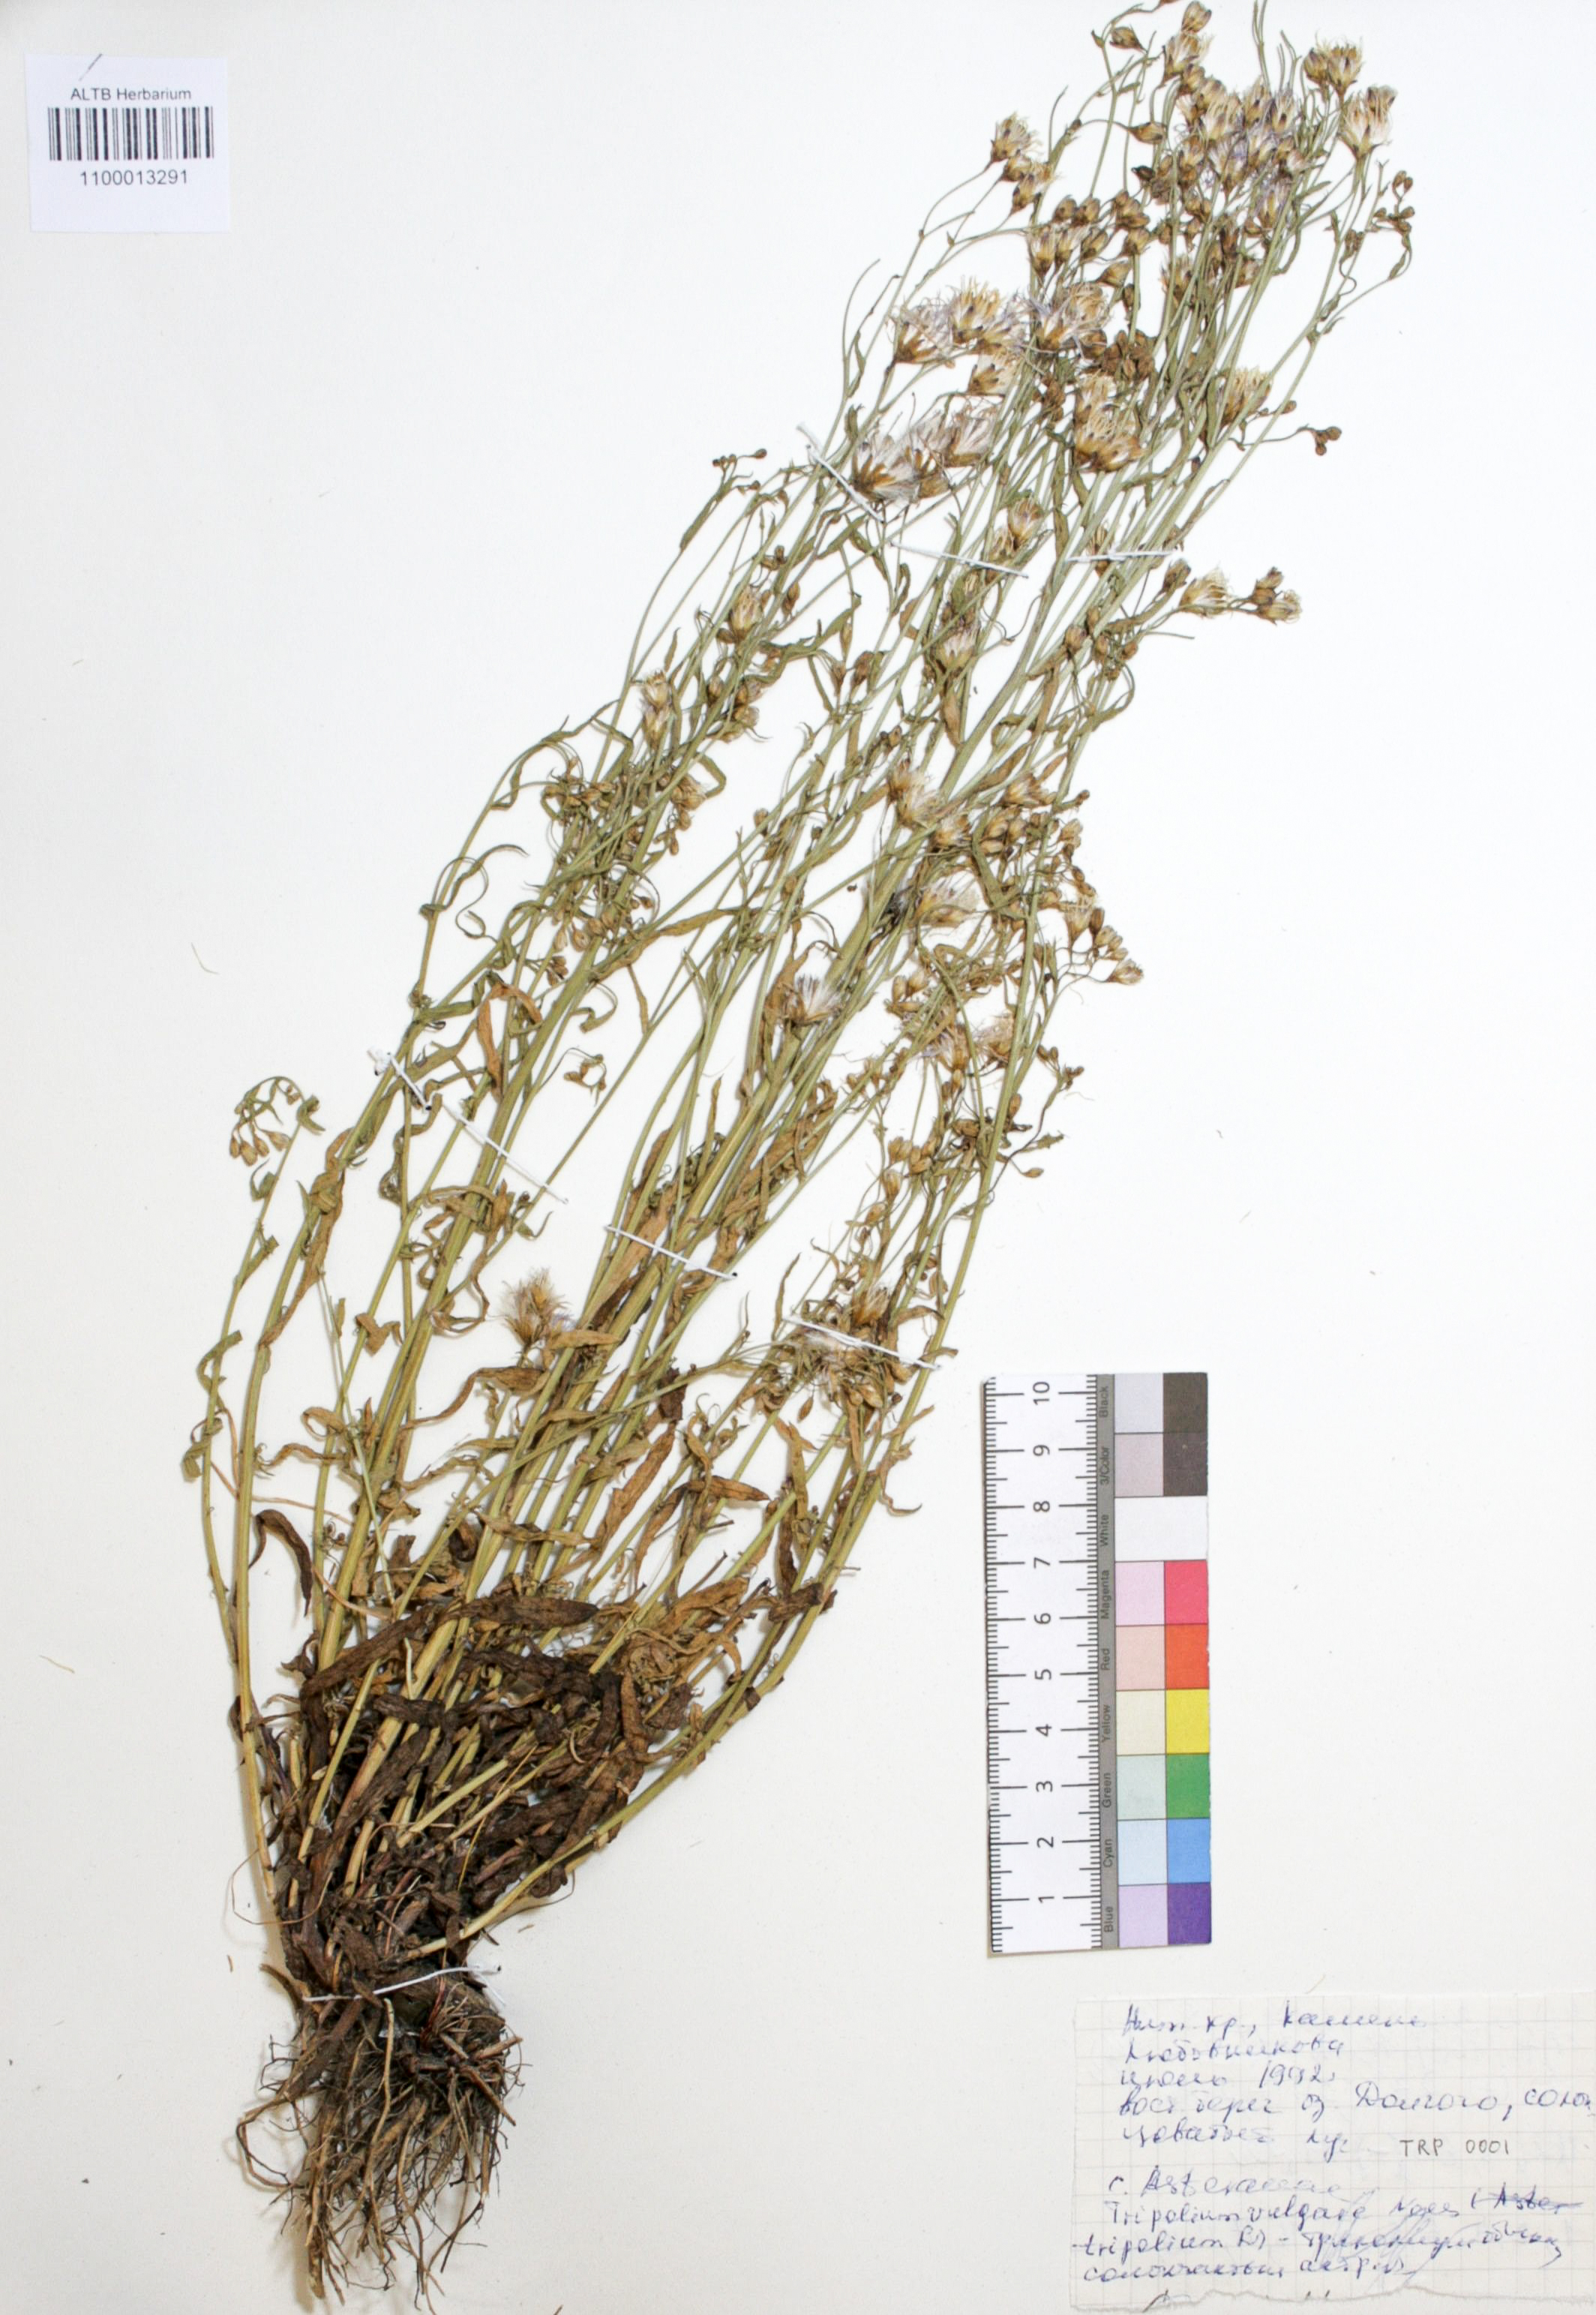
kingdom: Plantae
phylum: Tracheophyta
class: Magnoliopsida
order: Asterales
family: Asteraceae
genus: Tripolium
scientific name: Tripolium pannonicum
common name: Sea aster
